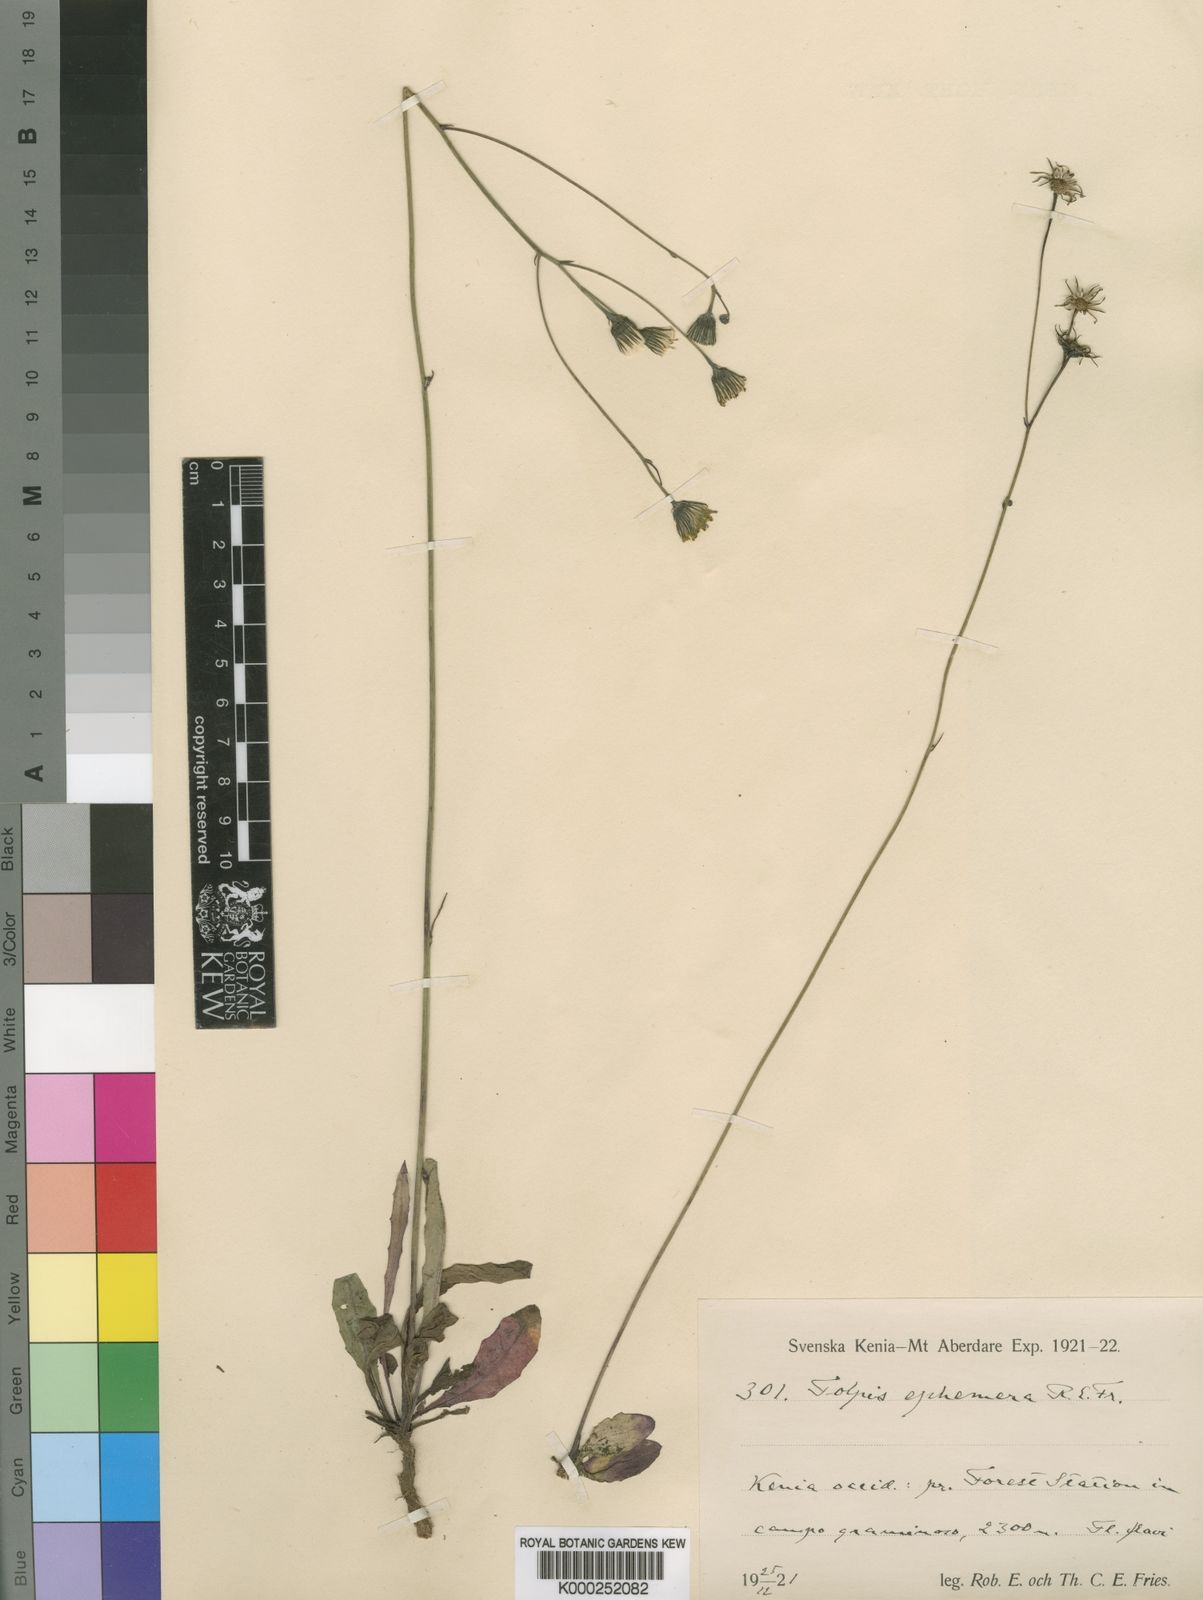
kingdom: Plantae
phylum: Tracheophyta
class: Magnoliopsida
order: Asterales
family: Asteraceae
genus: Tolpis
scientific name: Tolpis capensis
